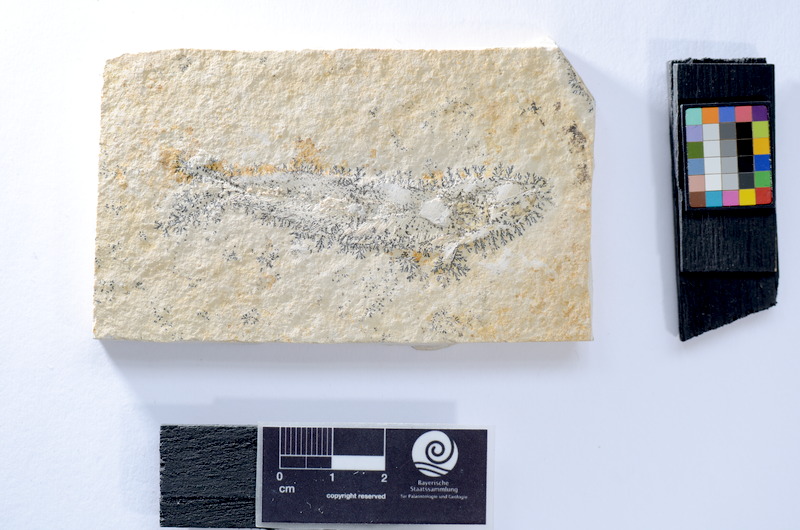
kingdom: Animalia
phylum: Chordata
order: Salmoniformes
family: Orthogonikleithridae
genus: Leptolepides
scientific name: Leptolepides
